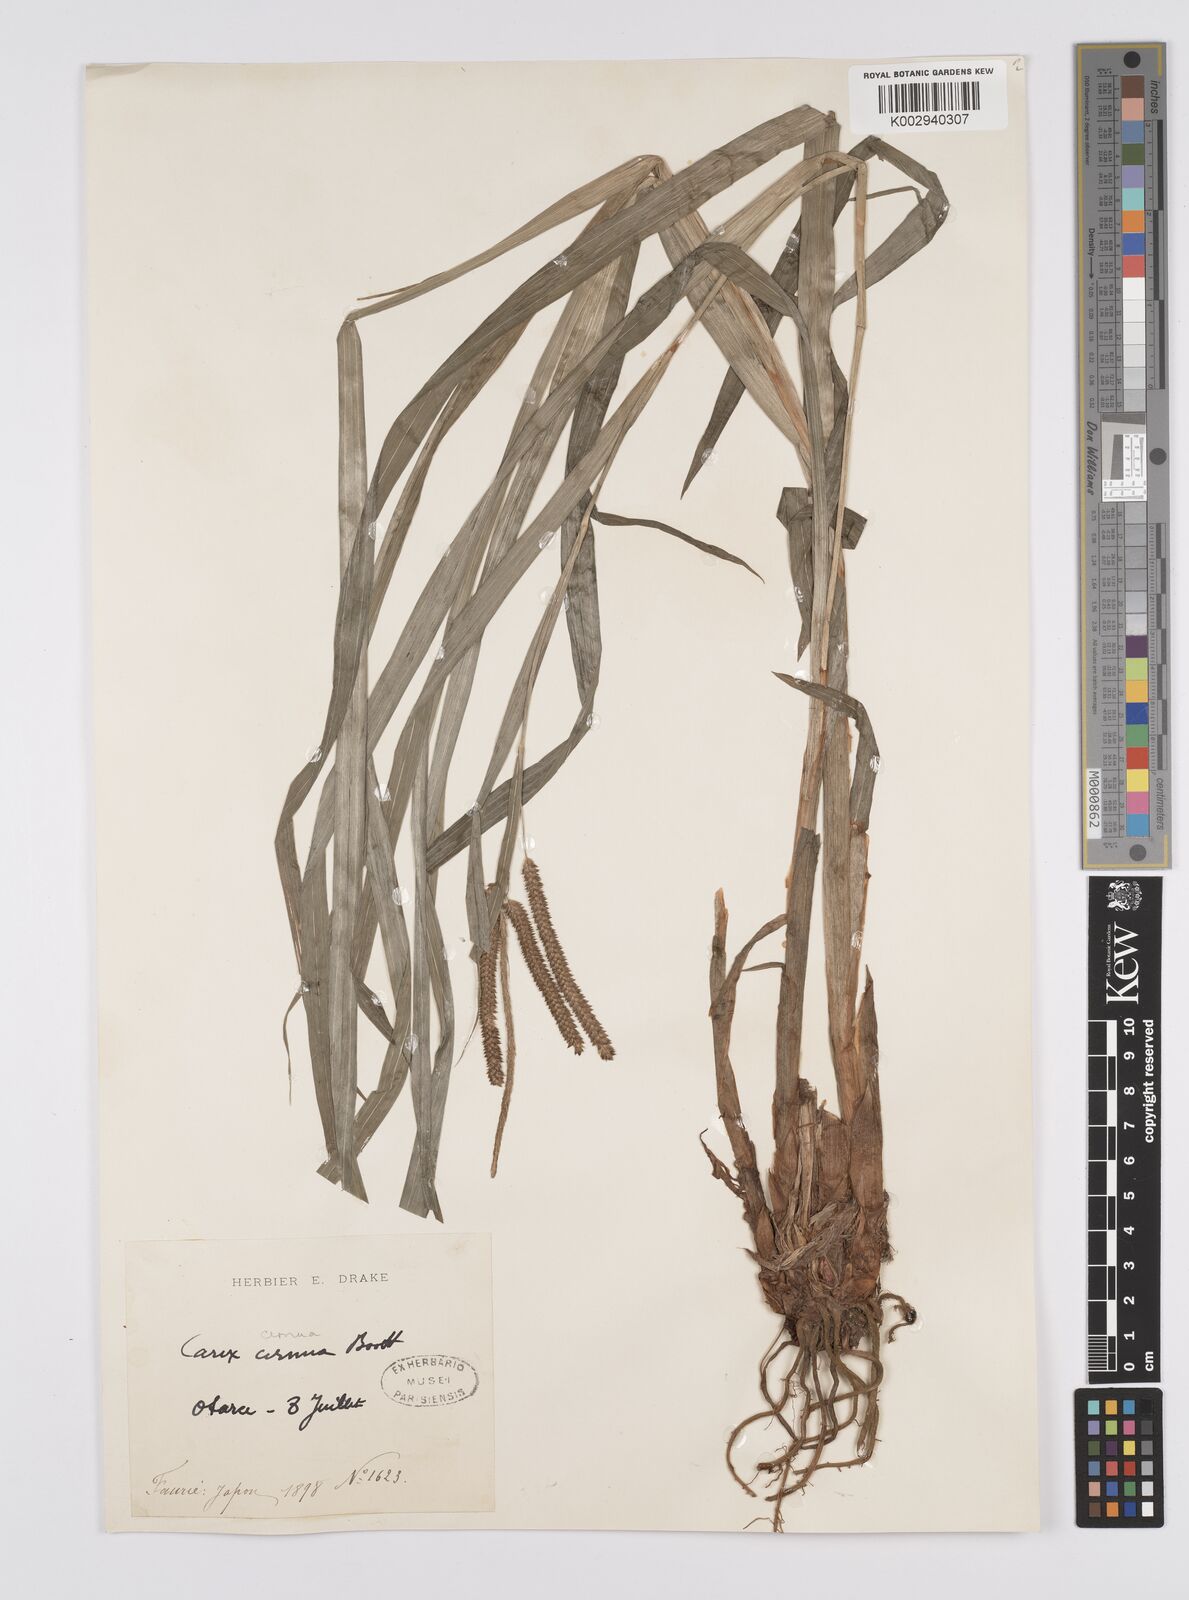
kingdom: Plantae
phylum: Tracheophyta
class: Liliopsida
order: Poales
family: Cyperaceae
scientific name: Cyperaceae
